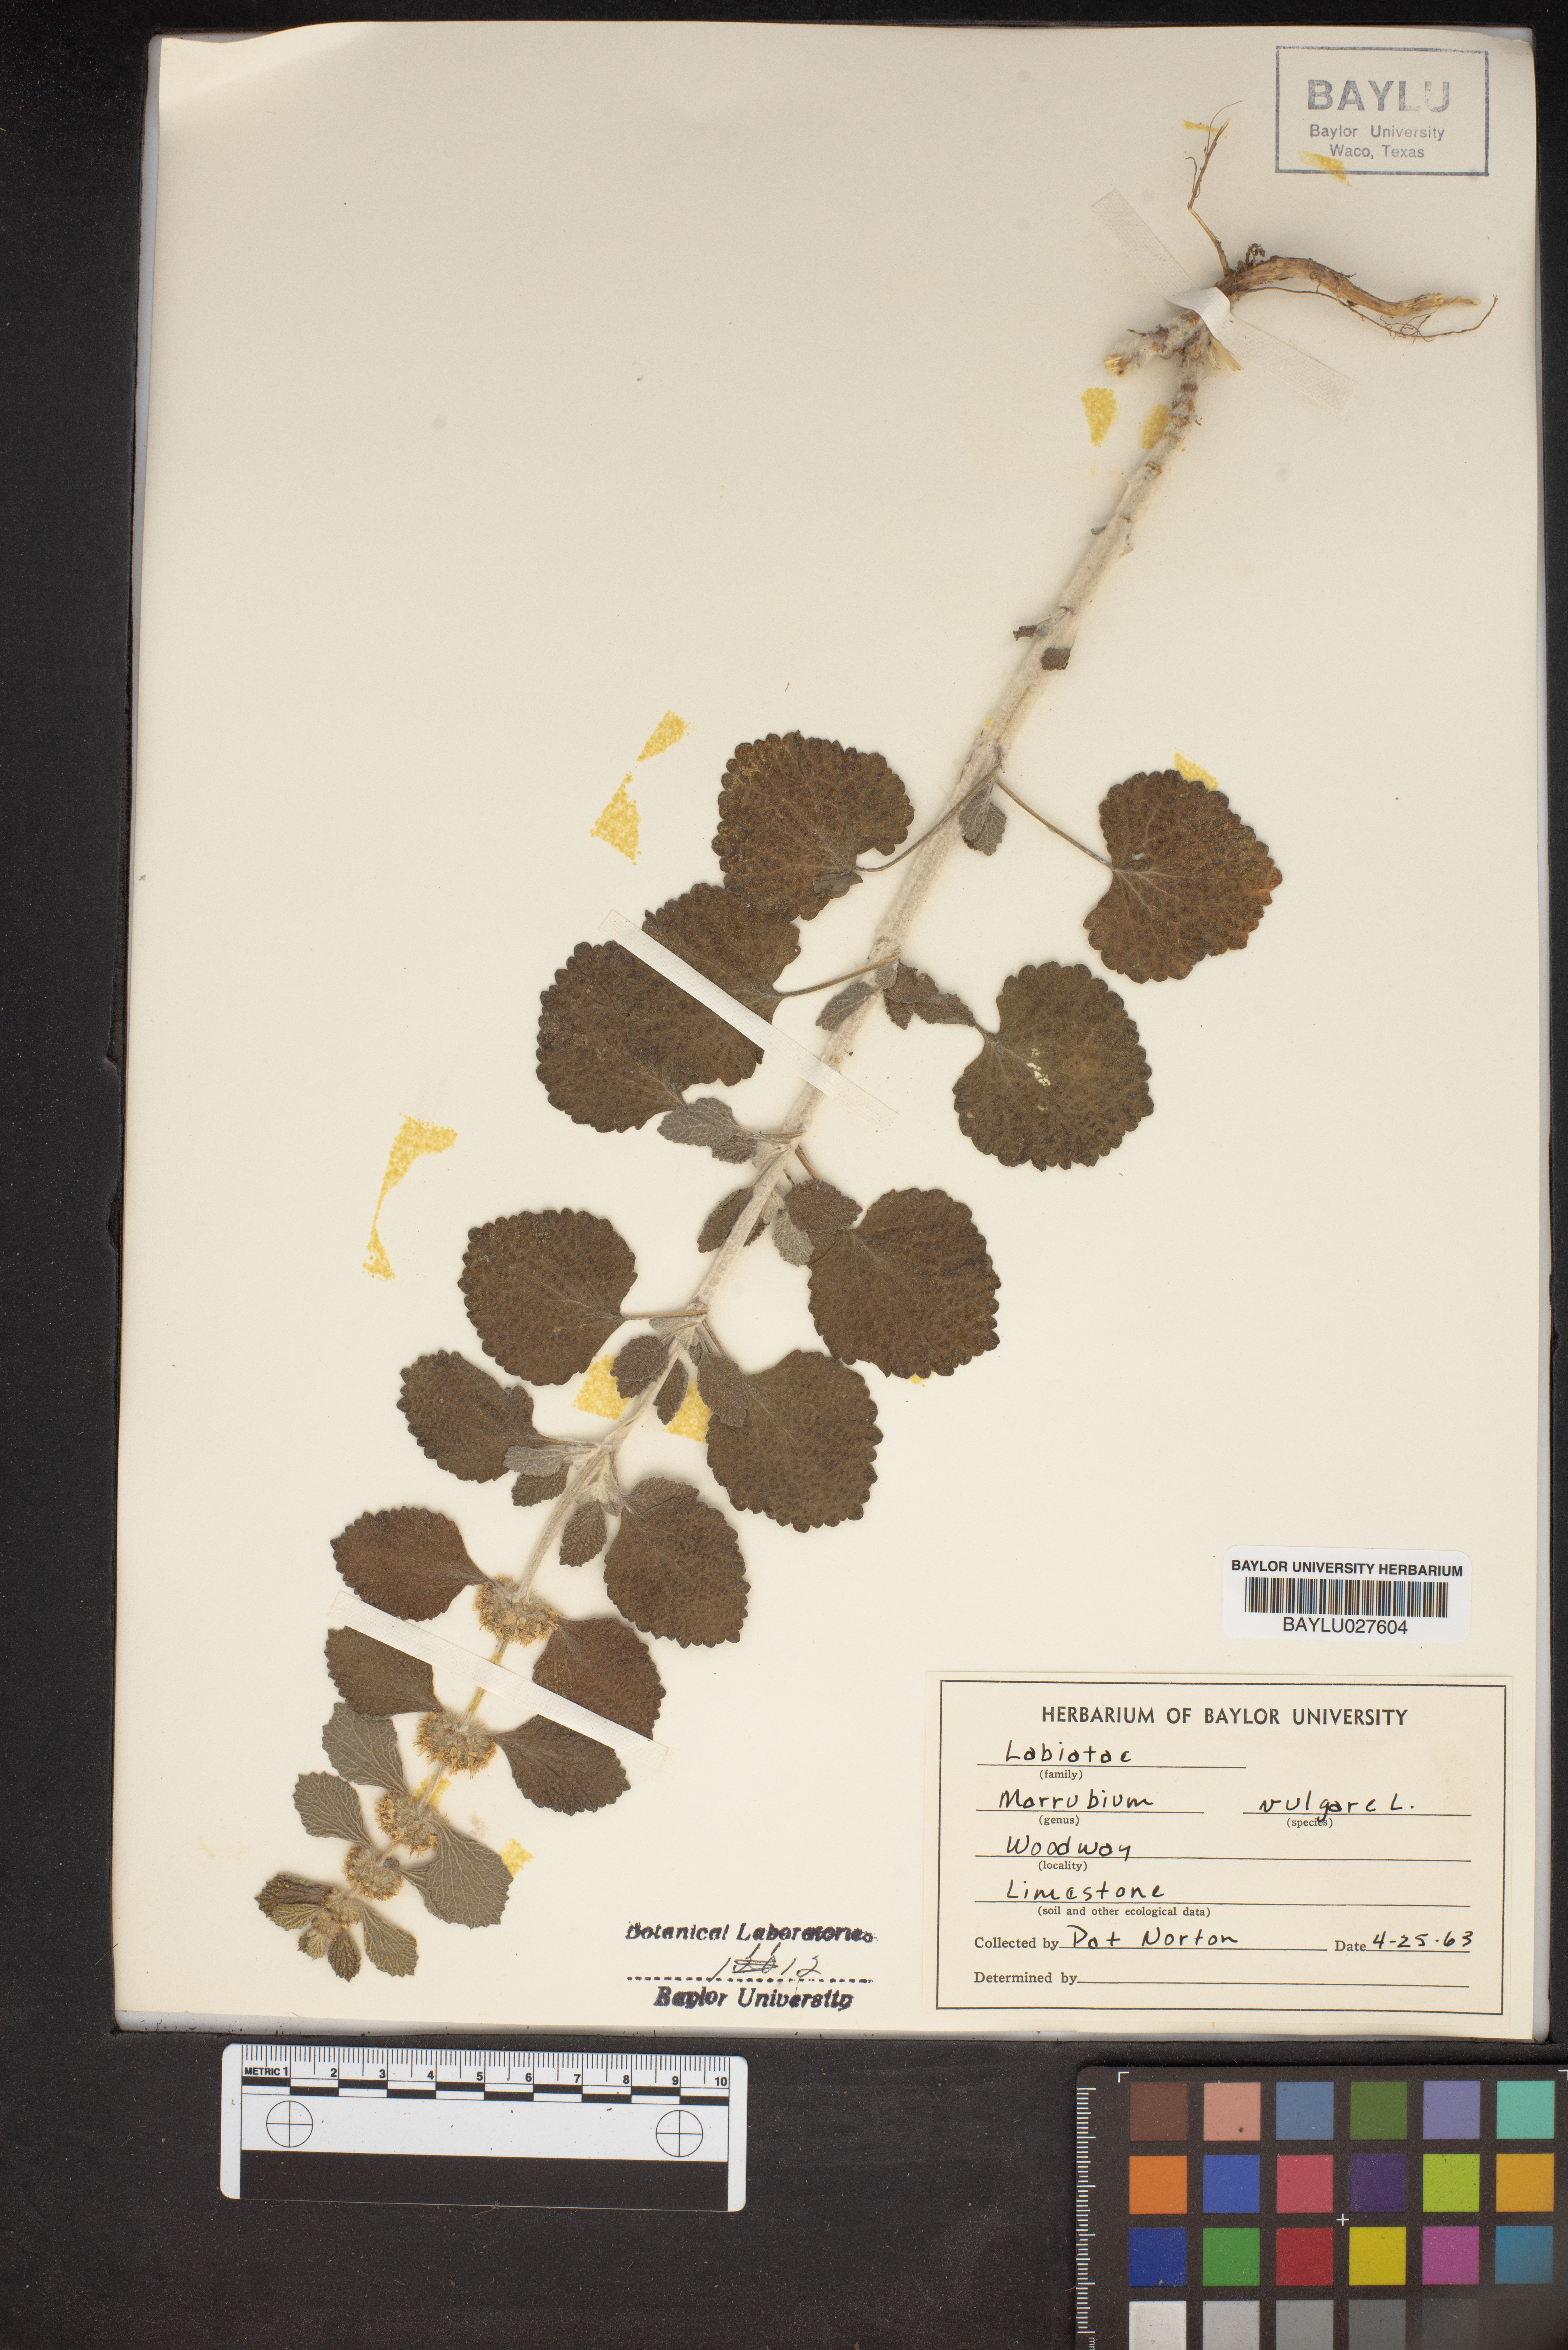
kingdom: Plantae
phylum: Tracheophyta
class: Magnoliopsida
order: Lamiales
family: Lamiaceae
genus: Marrubium
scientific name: Marrubium vulgare
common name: Horehound
